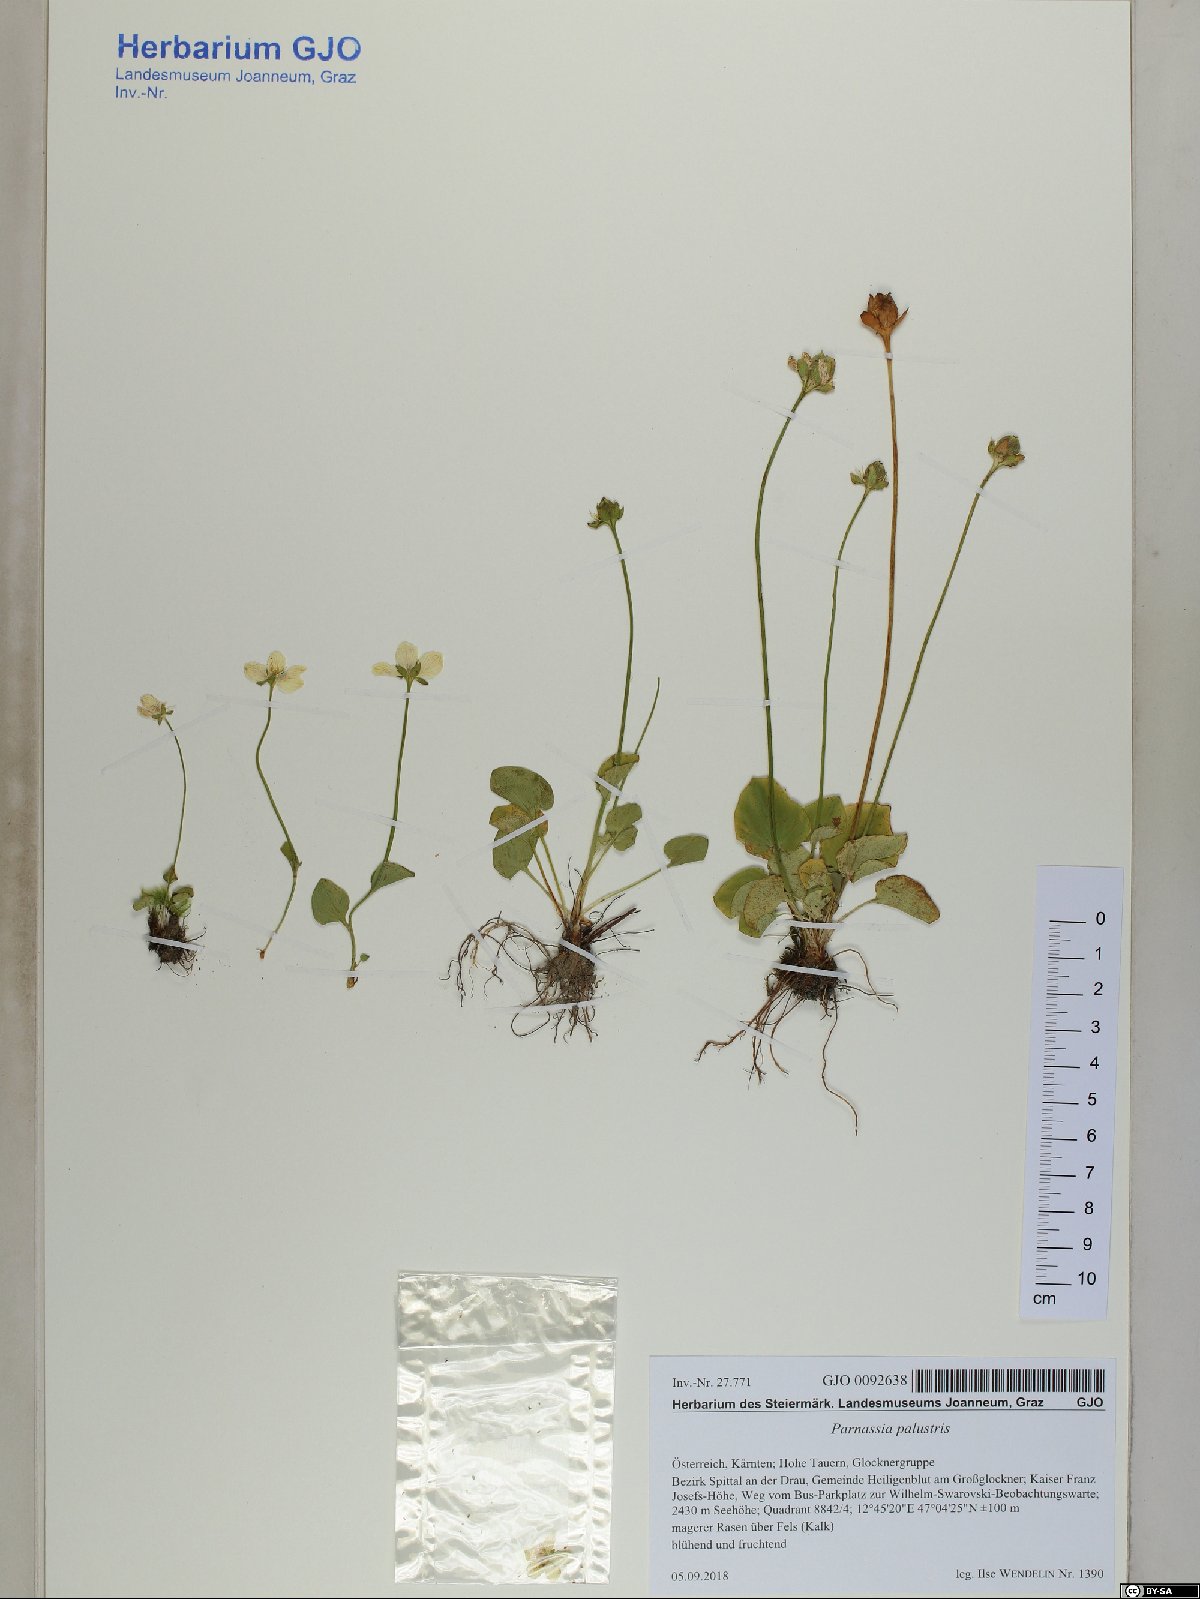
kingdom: Plantae
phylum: Tracheophyta
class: Magnoliopsida
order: Celastrales
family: Parnassiaceae
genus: Parnassia
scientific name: Parnassia palustris
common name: Grass-of-parnassus
